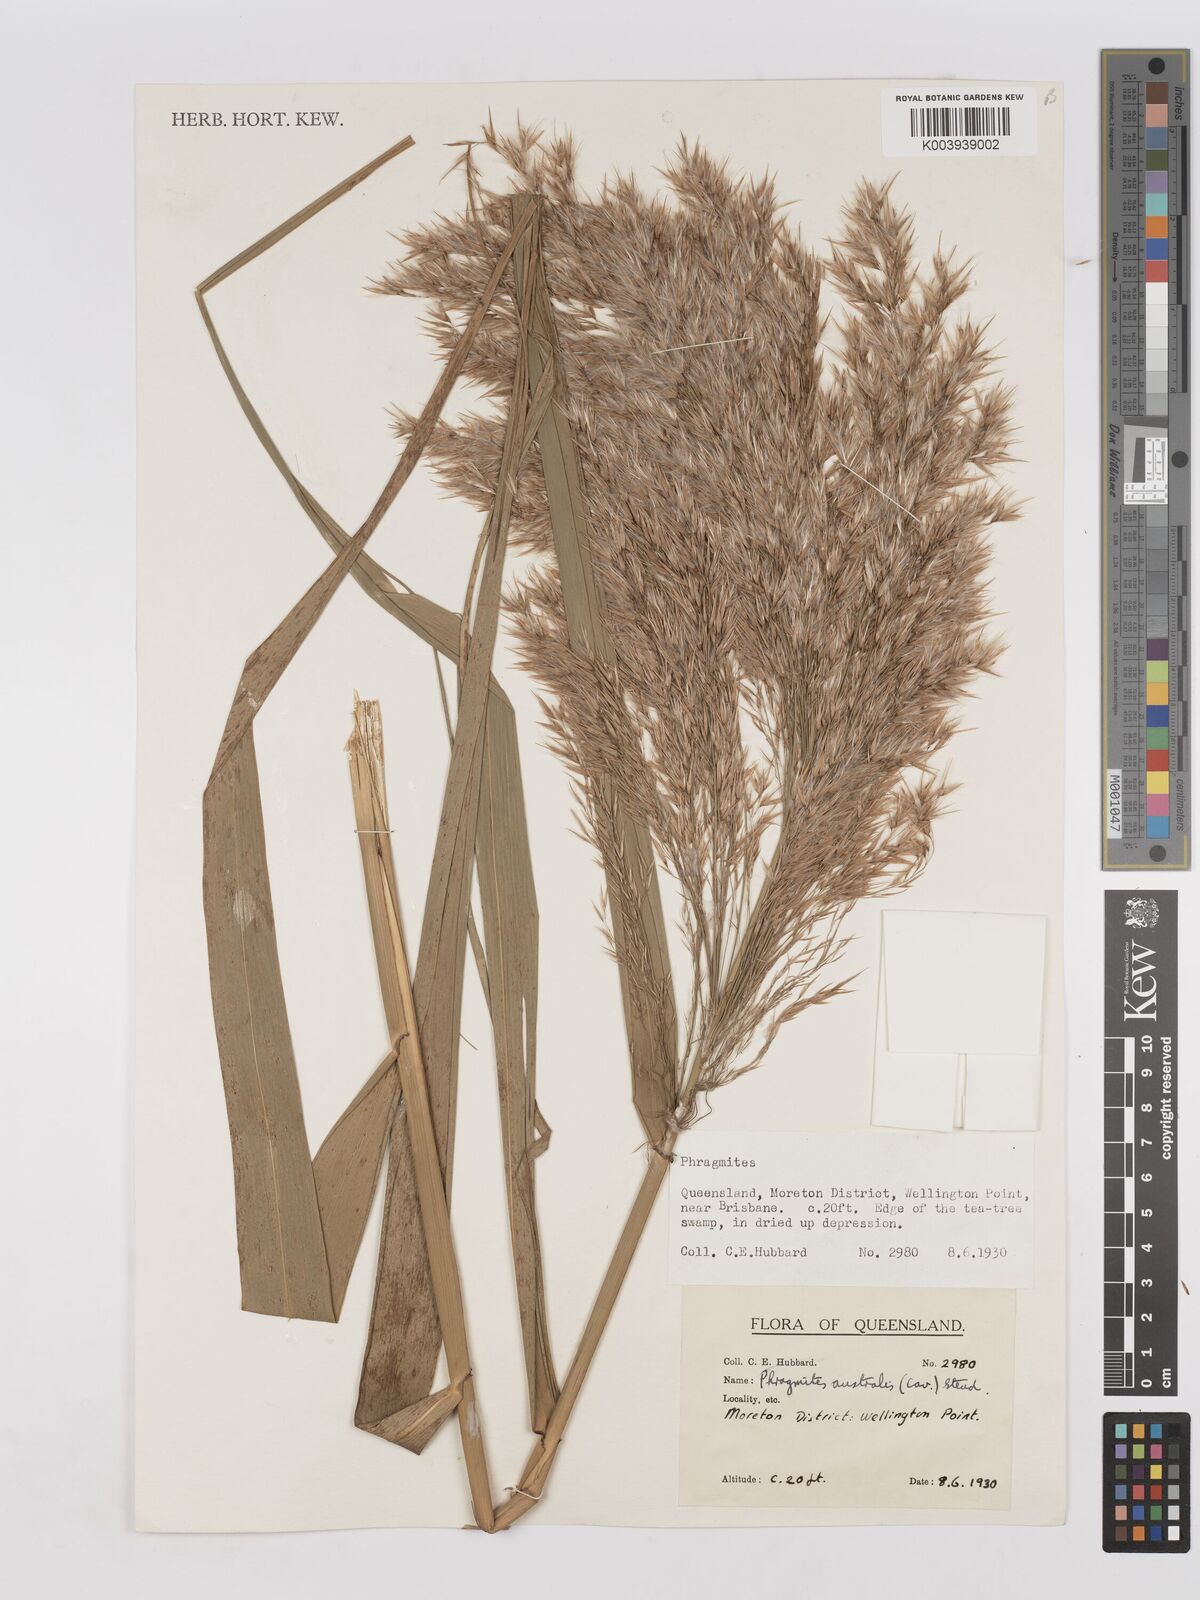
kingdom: Plantae
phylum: Tracheophyta
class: Liliopsida
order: Poales
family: Poaceae
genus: Phragmites
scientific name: Phragmites australis
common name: Common reed
